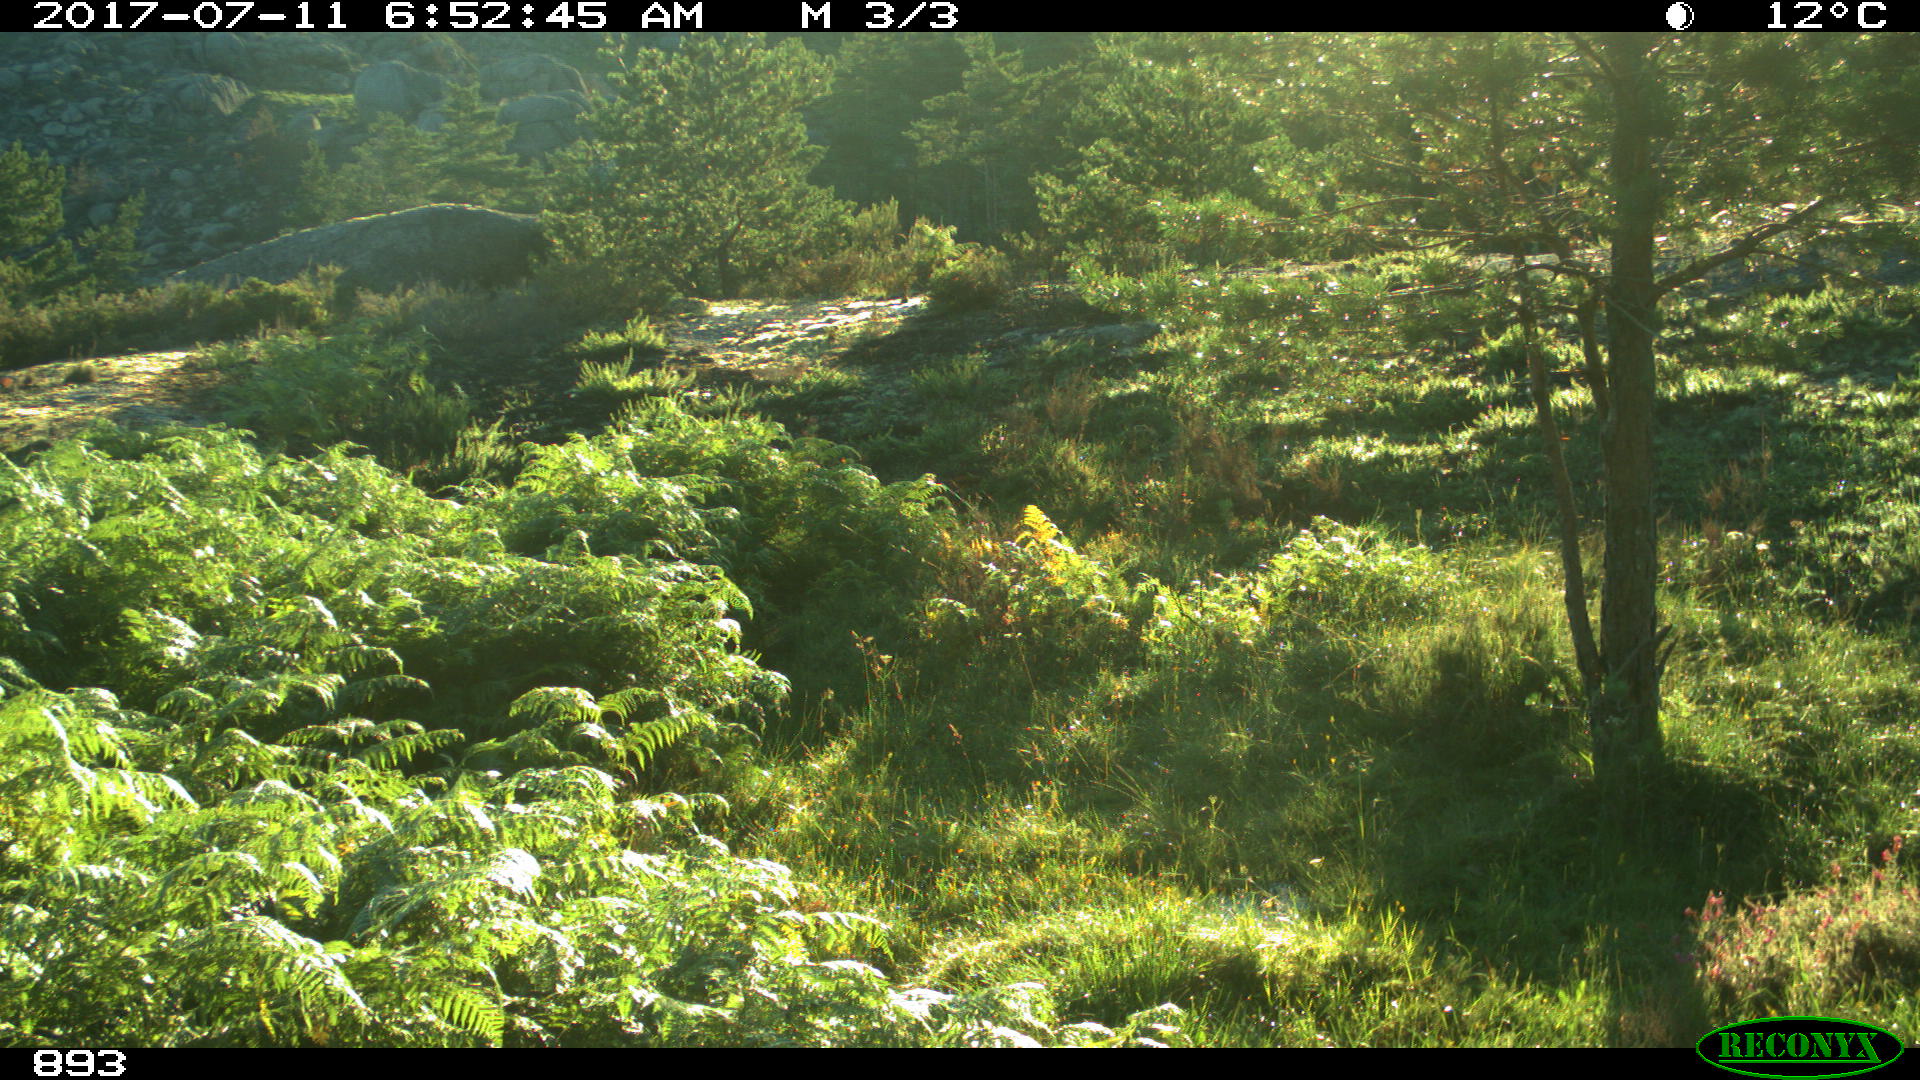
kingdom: Animalia
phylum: Chordata
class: Mammalia
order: Perissodactyla
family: Equidae
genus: Equus
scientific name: Equus caballus
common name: Horse
